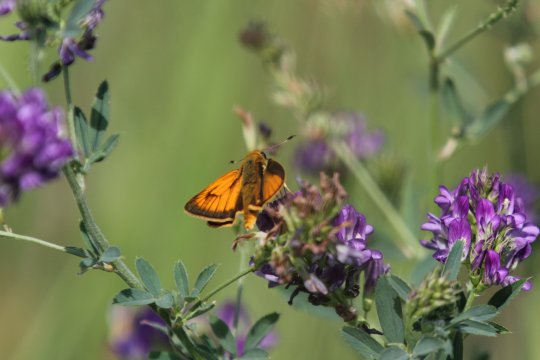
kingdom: Animalia
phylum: Arthropoda
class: Insecta
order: Lepidoptera
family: Hesperiidae
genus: Atrytone
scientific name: Atrytone delaware
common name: Delaware Skipper
